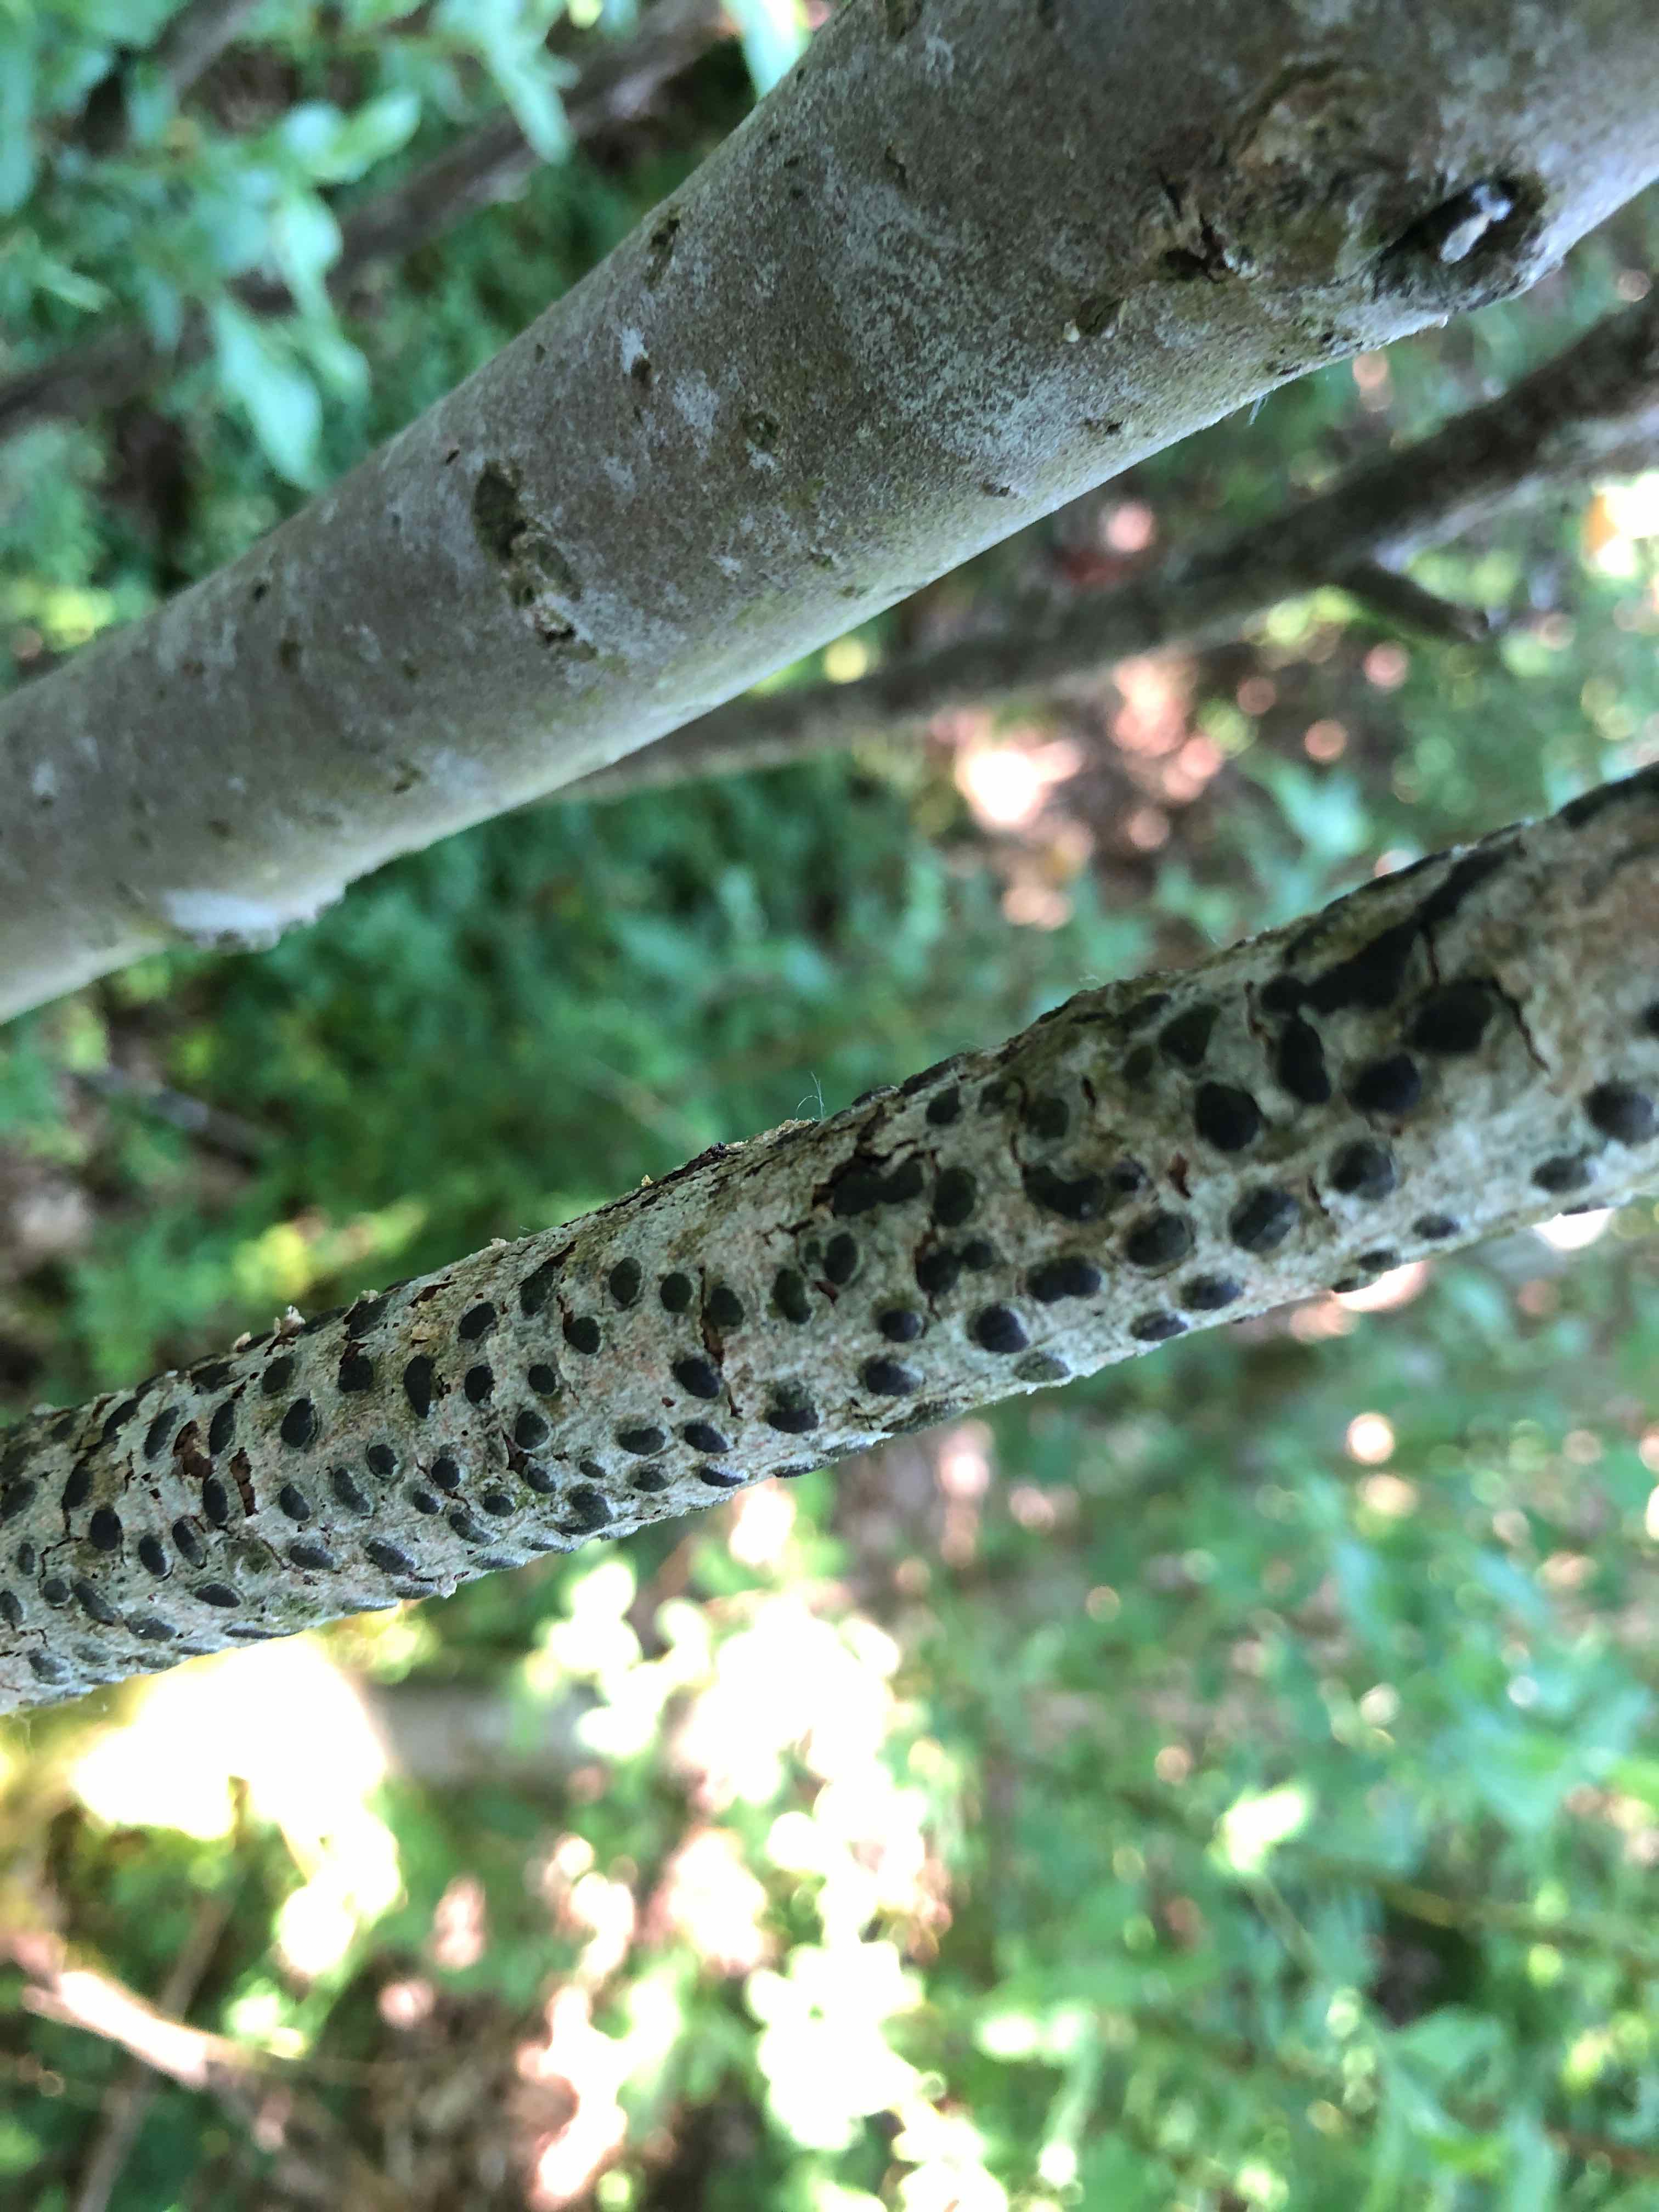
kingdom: Fungi
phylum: Ascomycota
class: Sordariomycetes
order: Xylariales
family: Diatrypaceae
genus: Diatrype
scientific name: Diatrype bullata
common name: pile-kulskorpe
